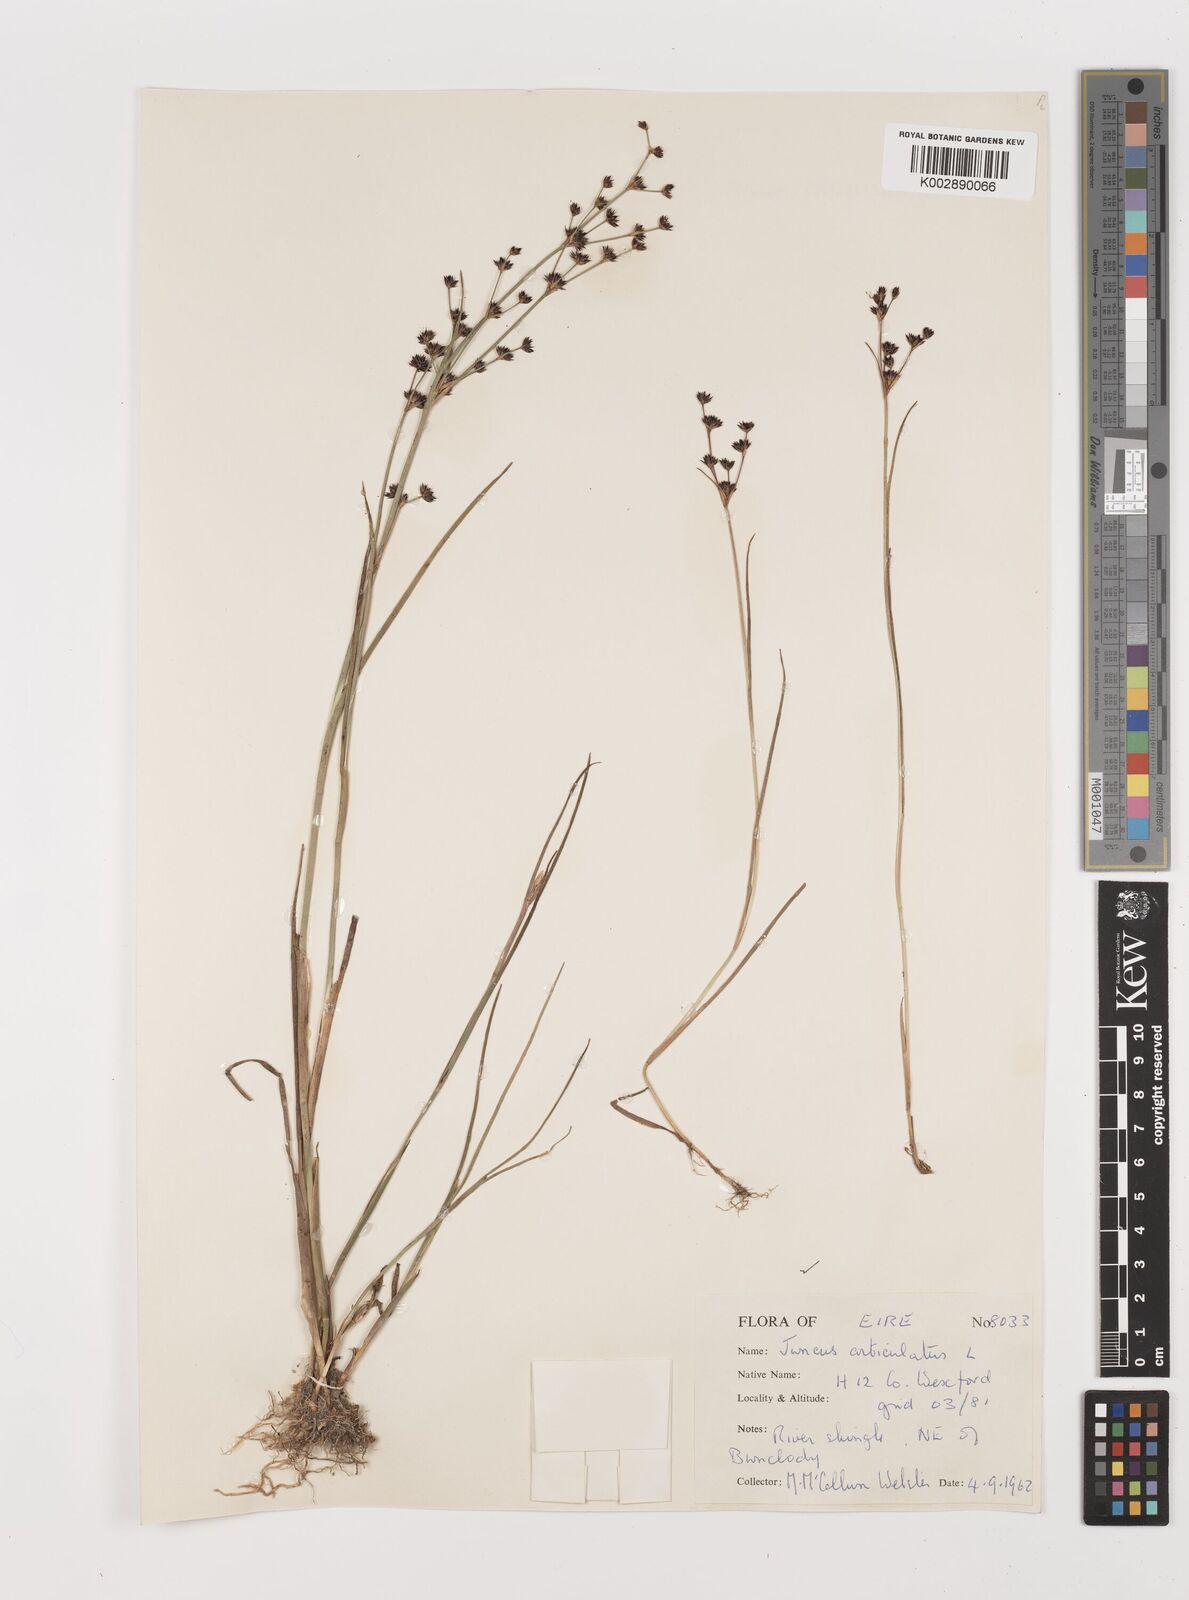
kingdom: Plantae
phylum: Tracheophyta
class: Liliopsida
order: Poales
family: Juncaceae
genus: Juncus
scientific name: Juncus articulatus
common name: Jointed rush
